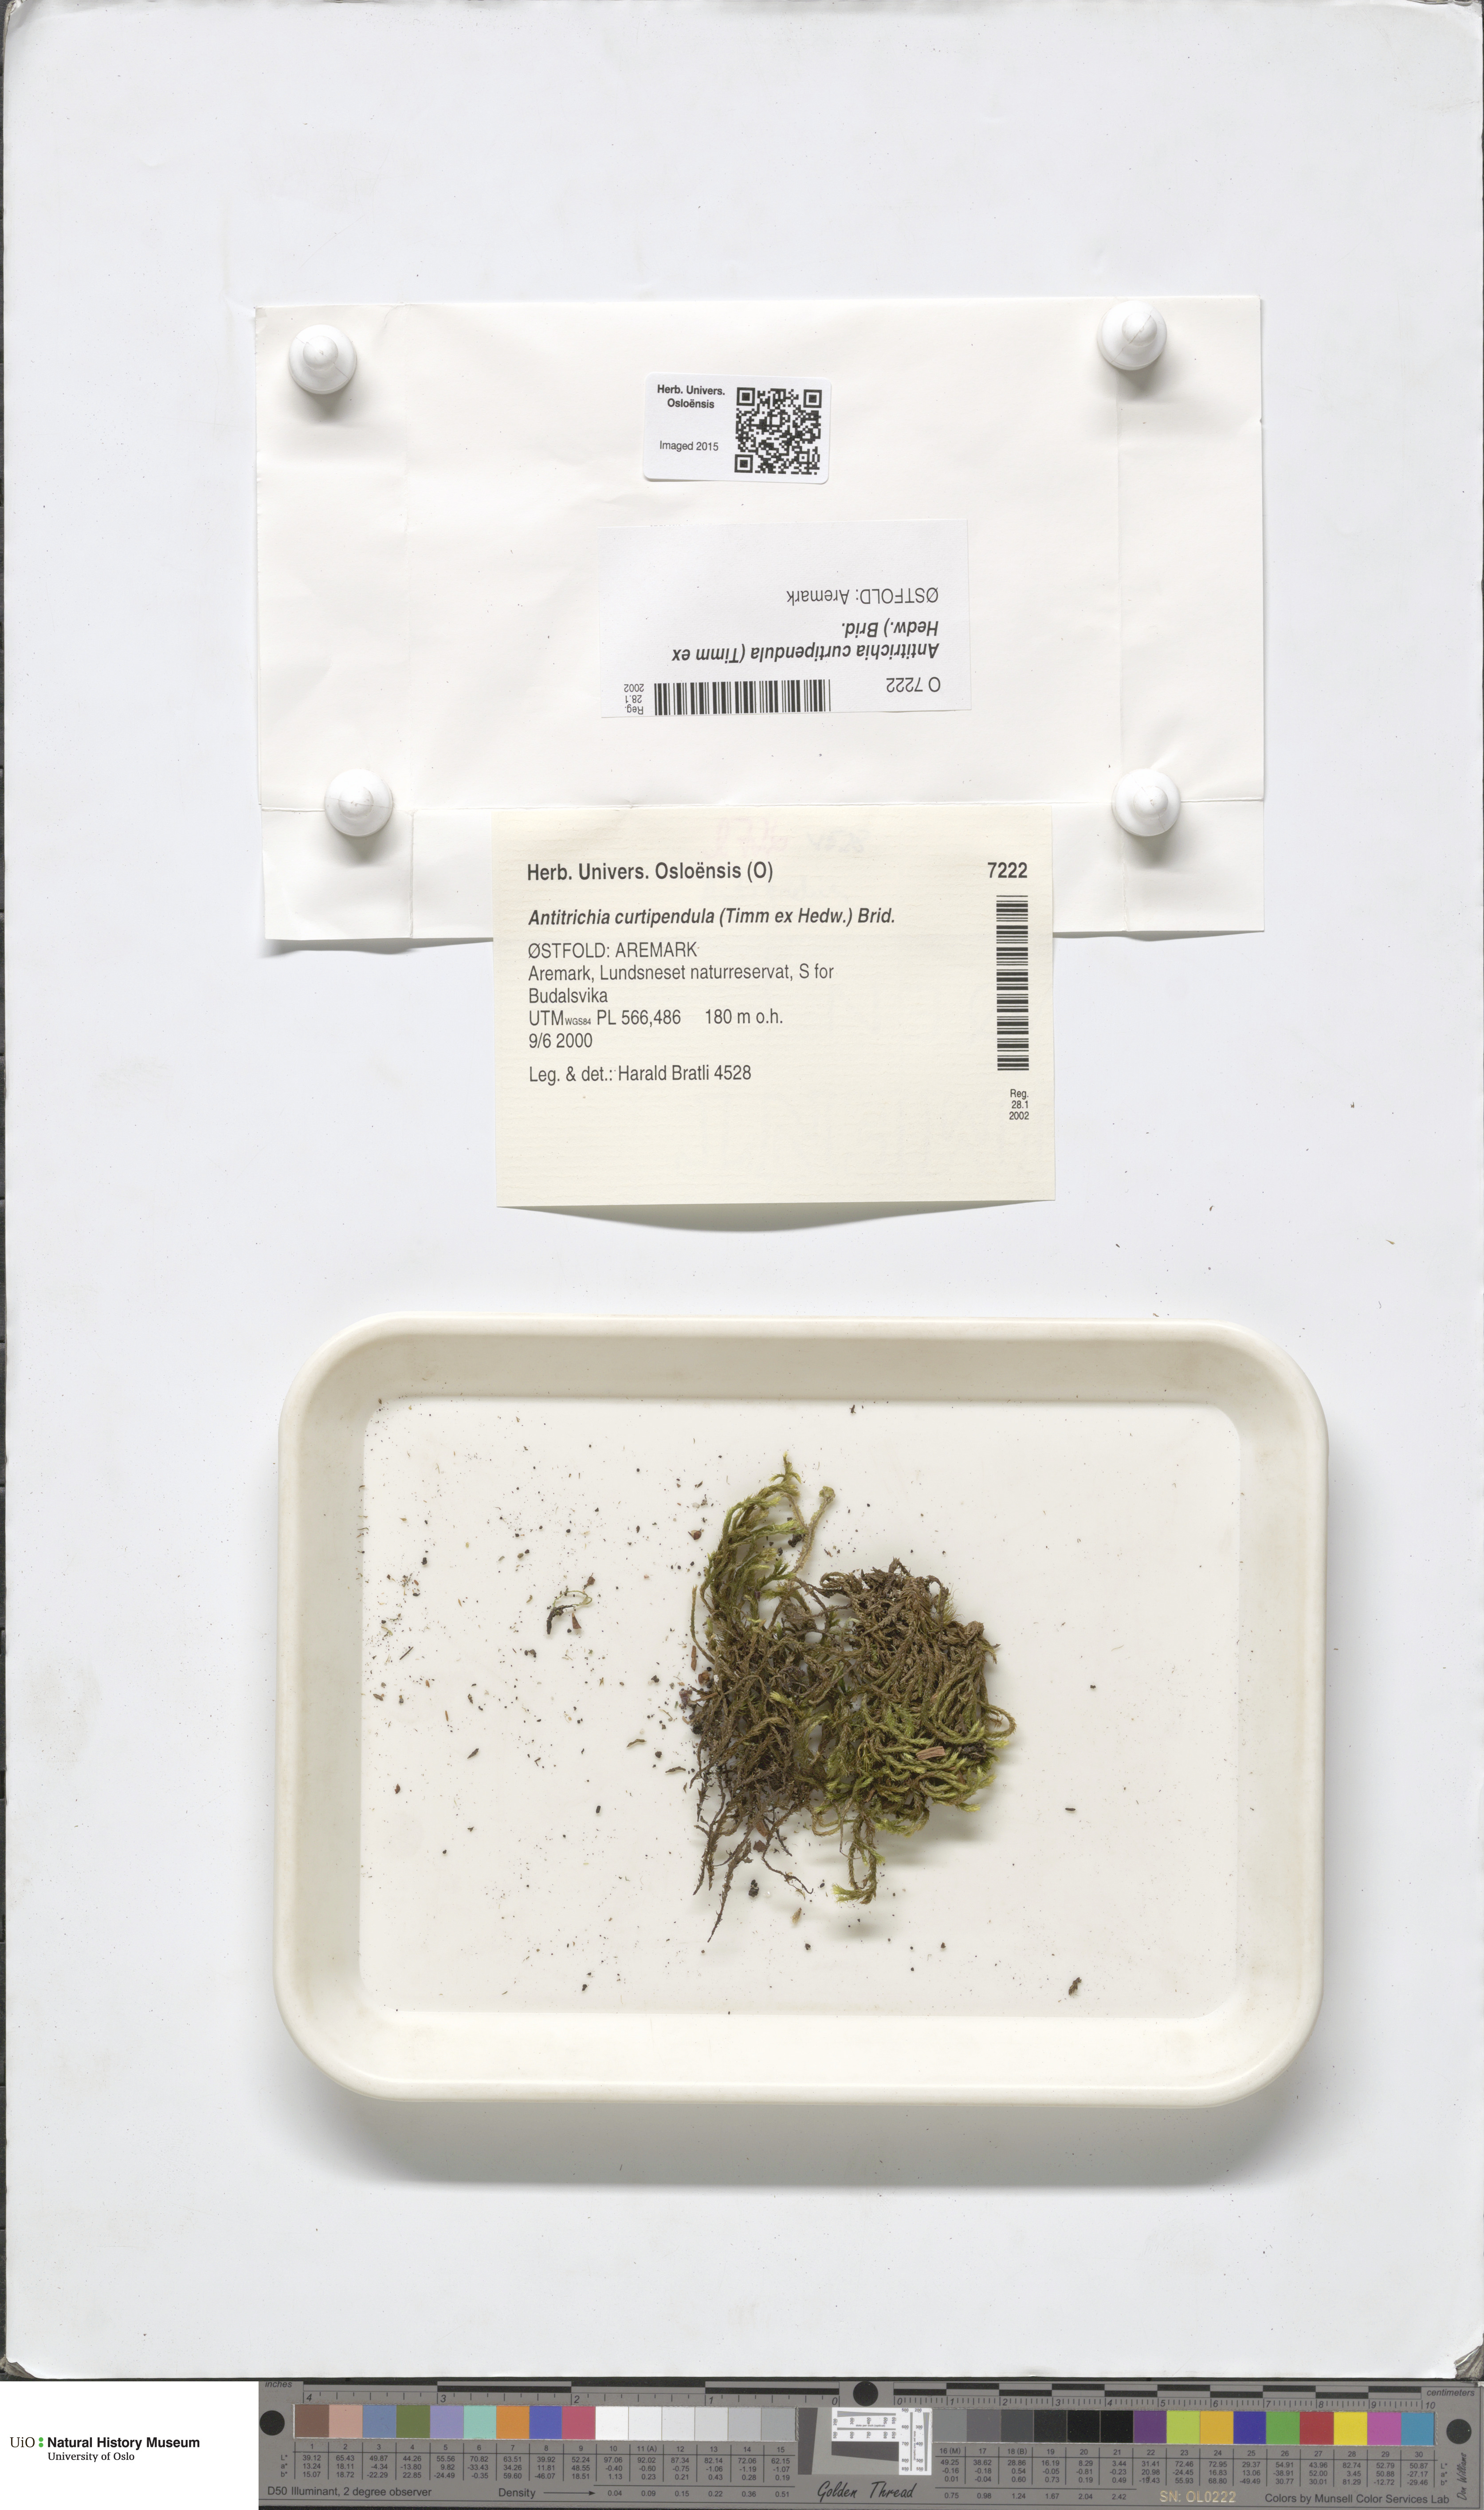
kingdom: Plantae
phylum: Bryophyta
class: Bryopsida
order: Hypnales
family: Antitrichiaceae
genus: Antitrichia
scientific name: Antitrichia curtipendula
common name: Pendulous wing-moss
